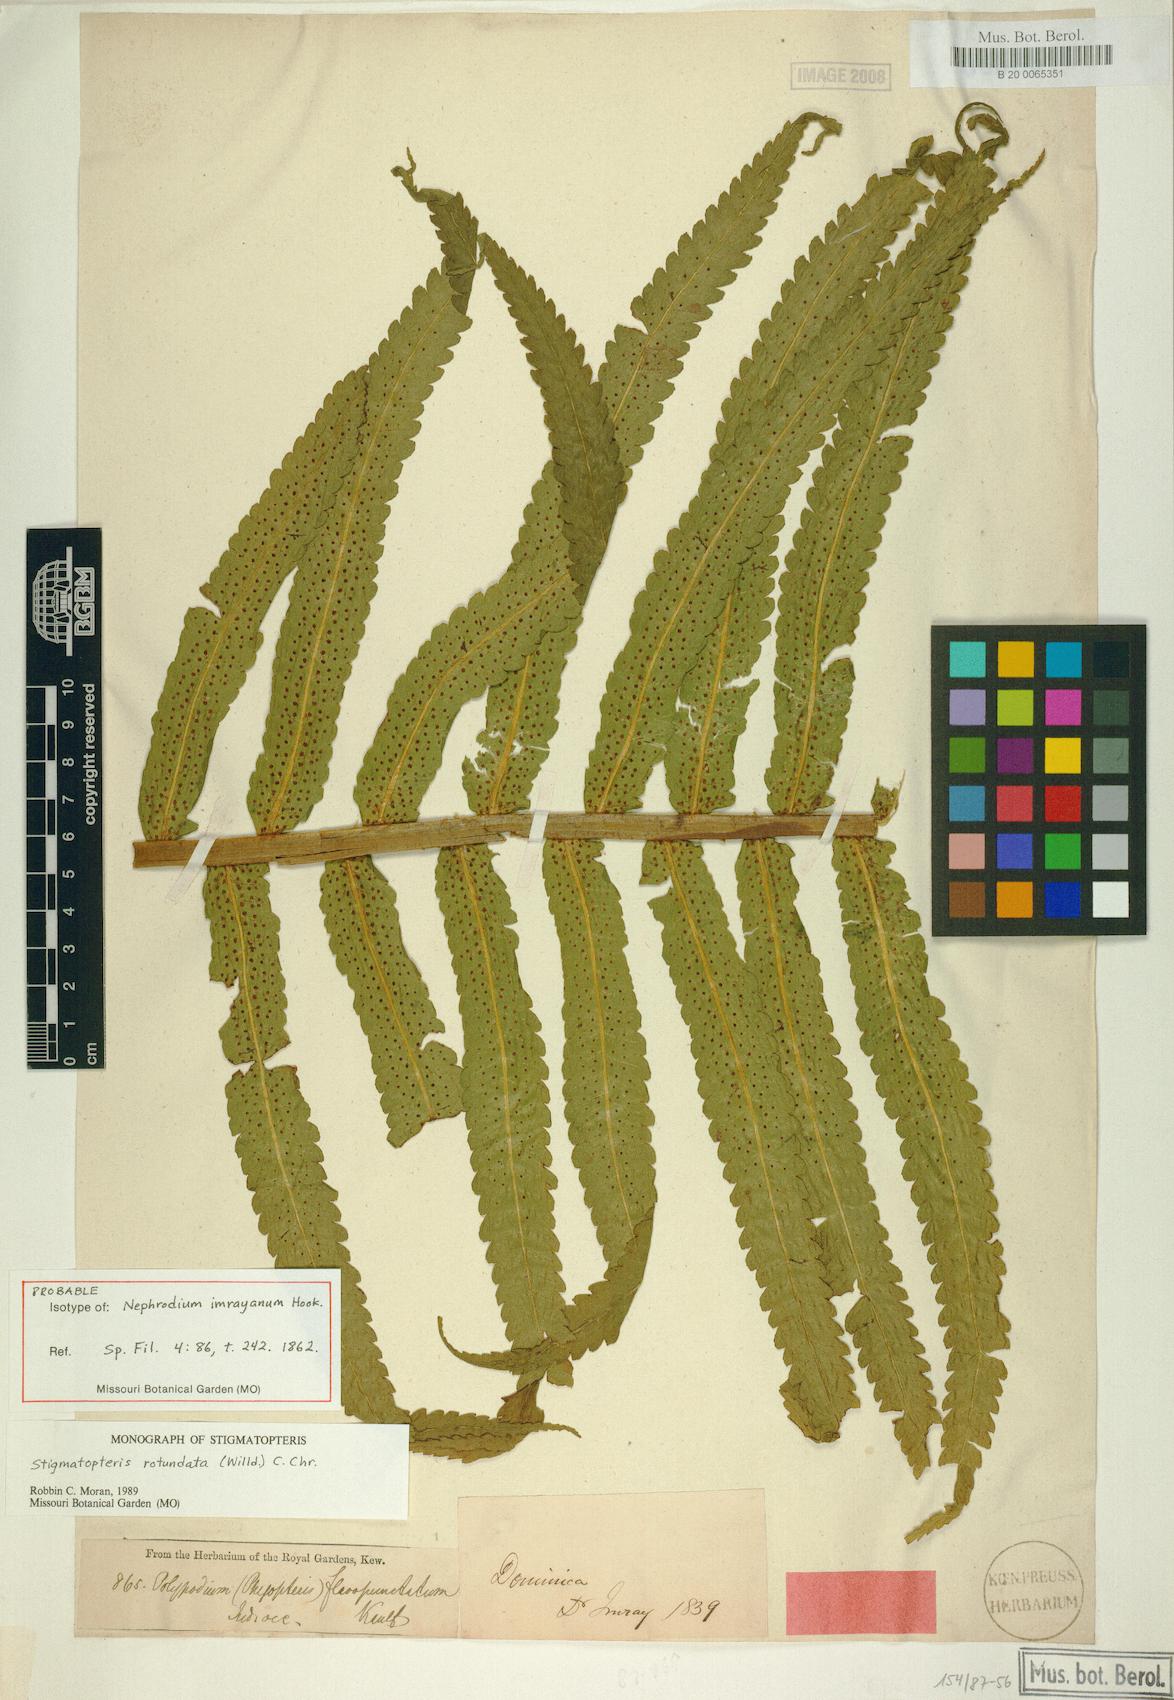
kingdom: Plantae
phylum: Tracheophyta
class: Polypodiopsida
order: Polypodiales
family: Dryopteridaceae
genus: Stigmatopteris
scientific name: Stigmatopteris rotundata
